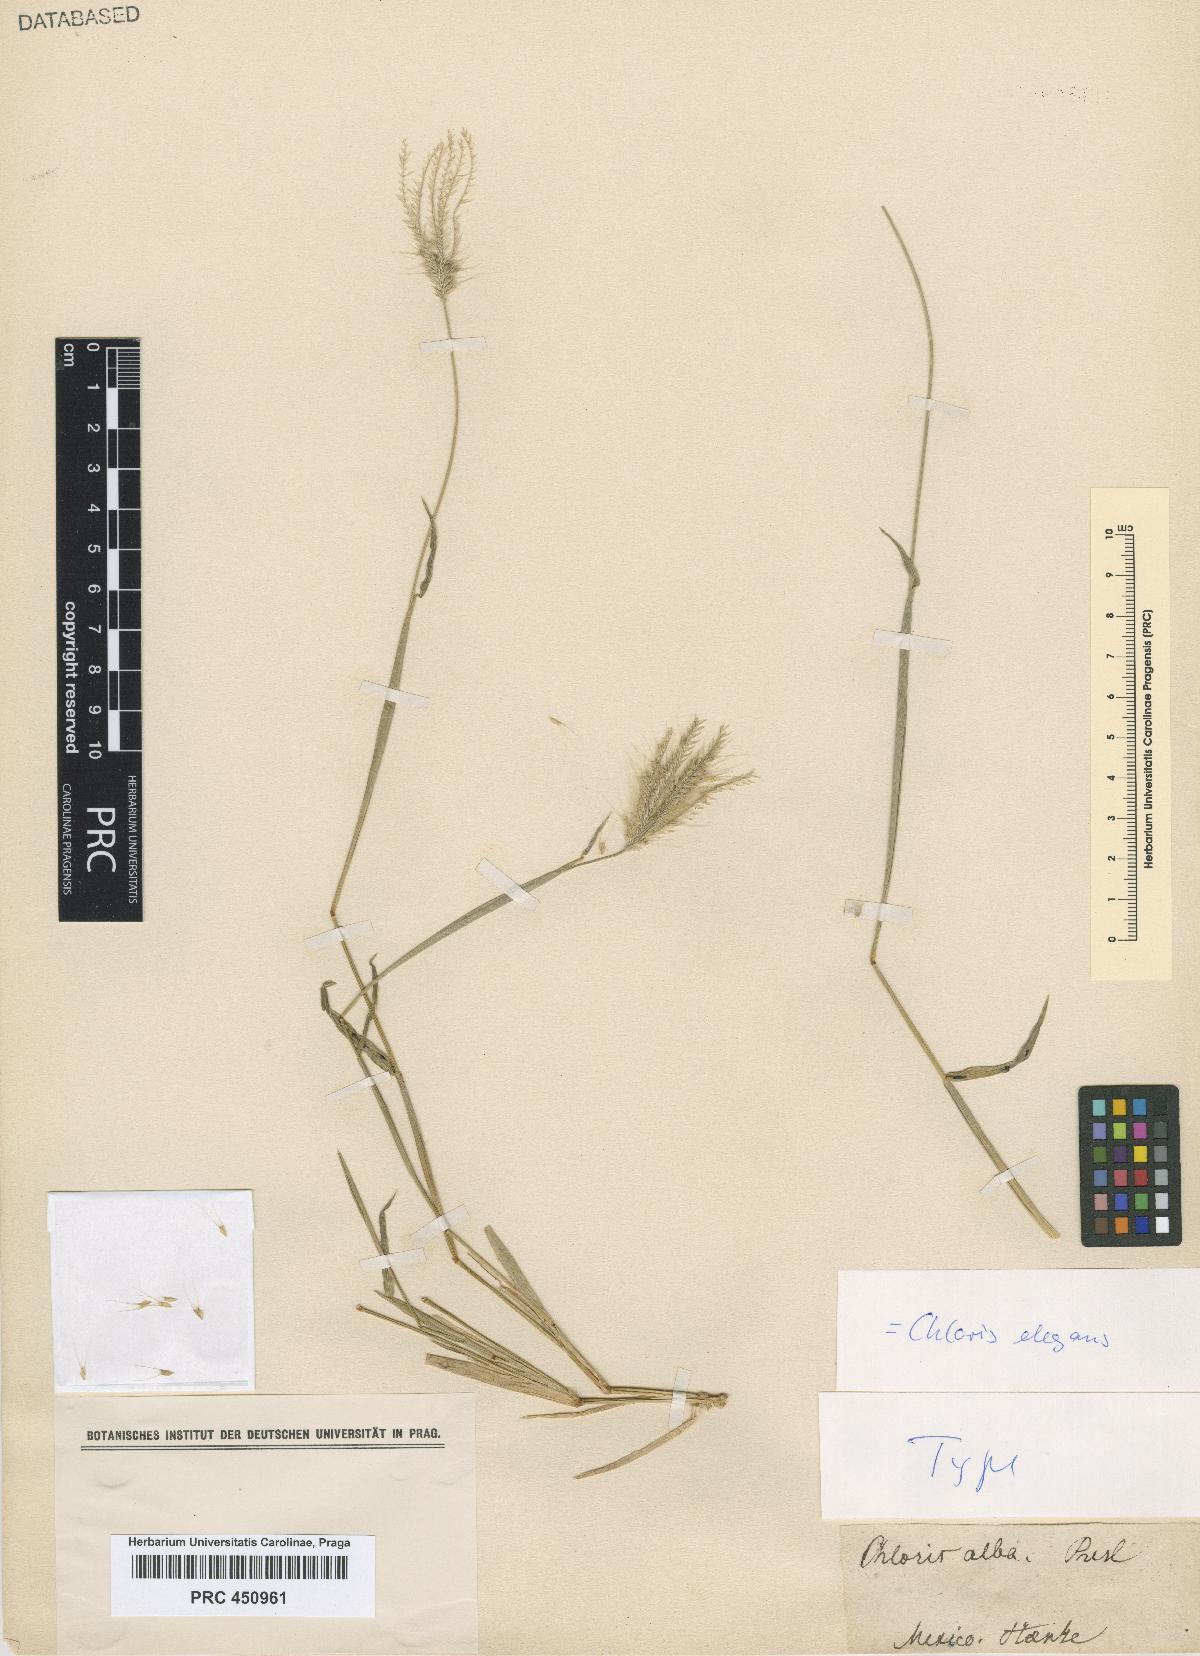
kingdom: Plantae
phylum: Tracheophyta
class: Liliopsida
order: Poales
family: Poaceae
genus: Chloris
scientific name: Chloris virgata
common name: Feathery rhodes-grass
